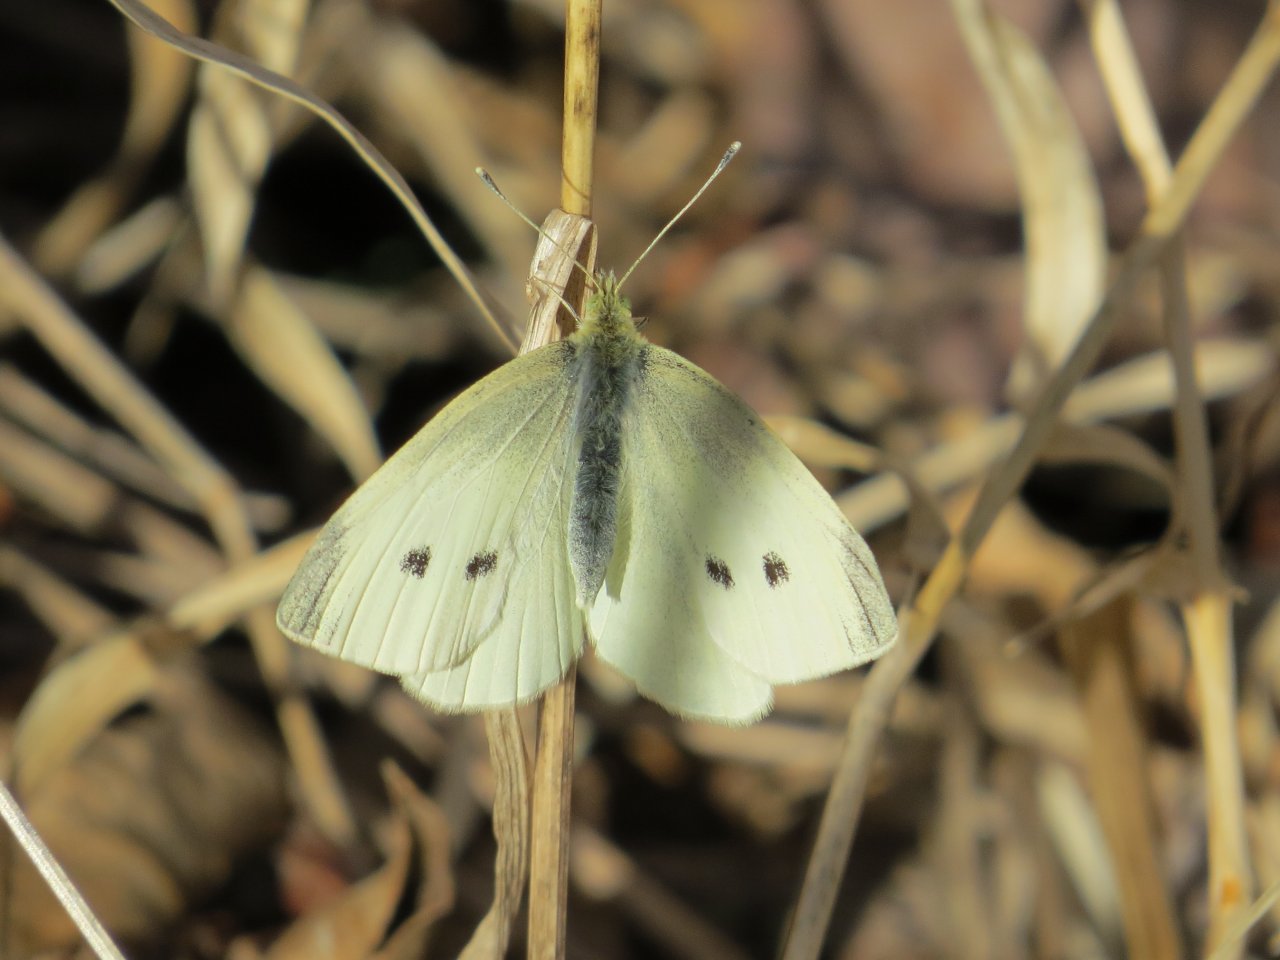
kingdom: Animalia
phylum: Arthropoda
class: Insecta
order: Lepidoptera
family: Pieridae
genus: Pieris
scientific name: Pieris rapae
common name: Cabbage White
